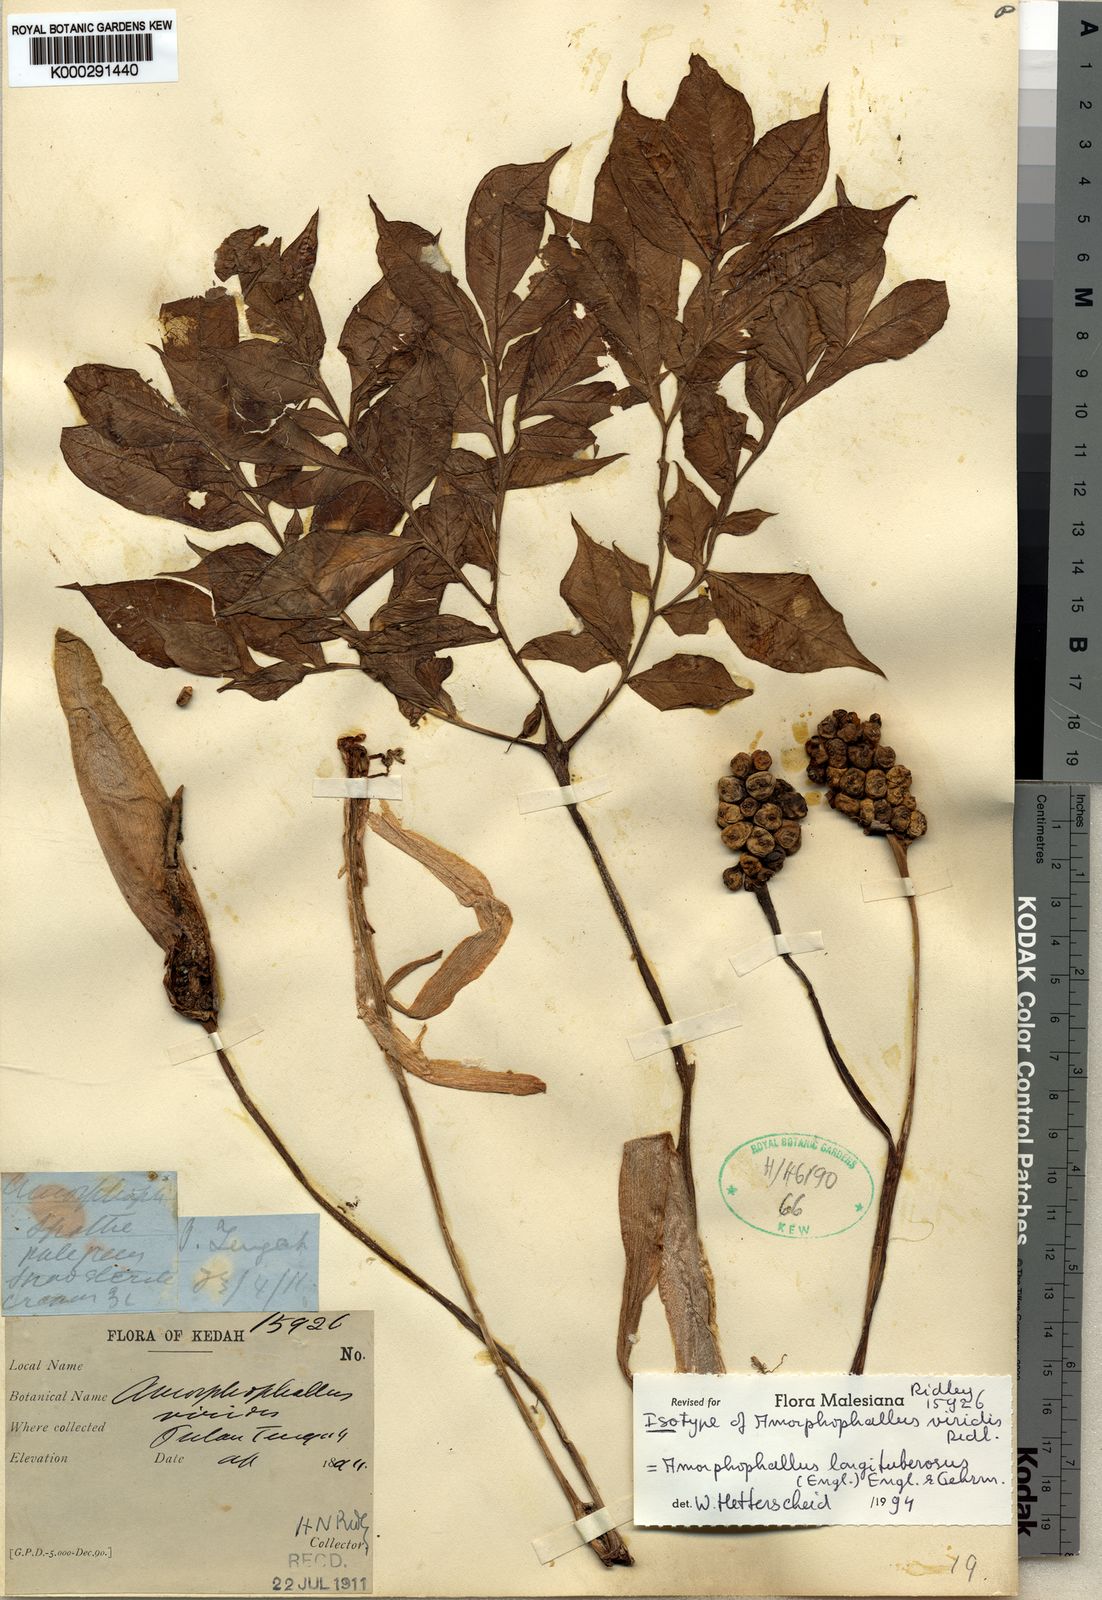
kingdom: Plantae
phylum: Tracheophyta
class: Liliopsida
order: Alismatales
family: Araceae
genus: Amorphophallus
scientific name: Amorphophallus longituberosus
